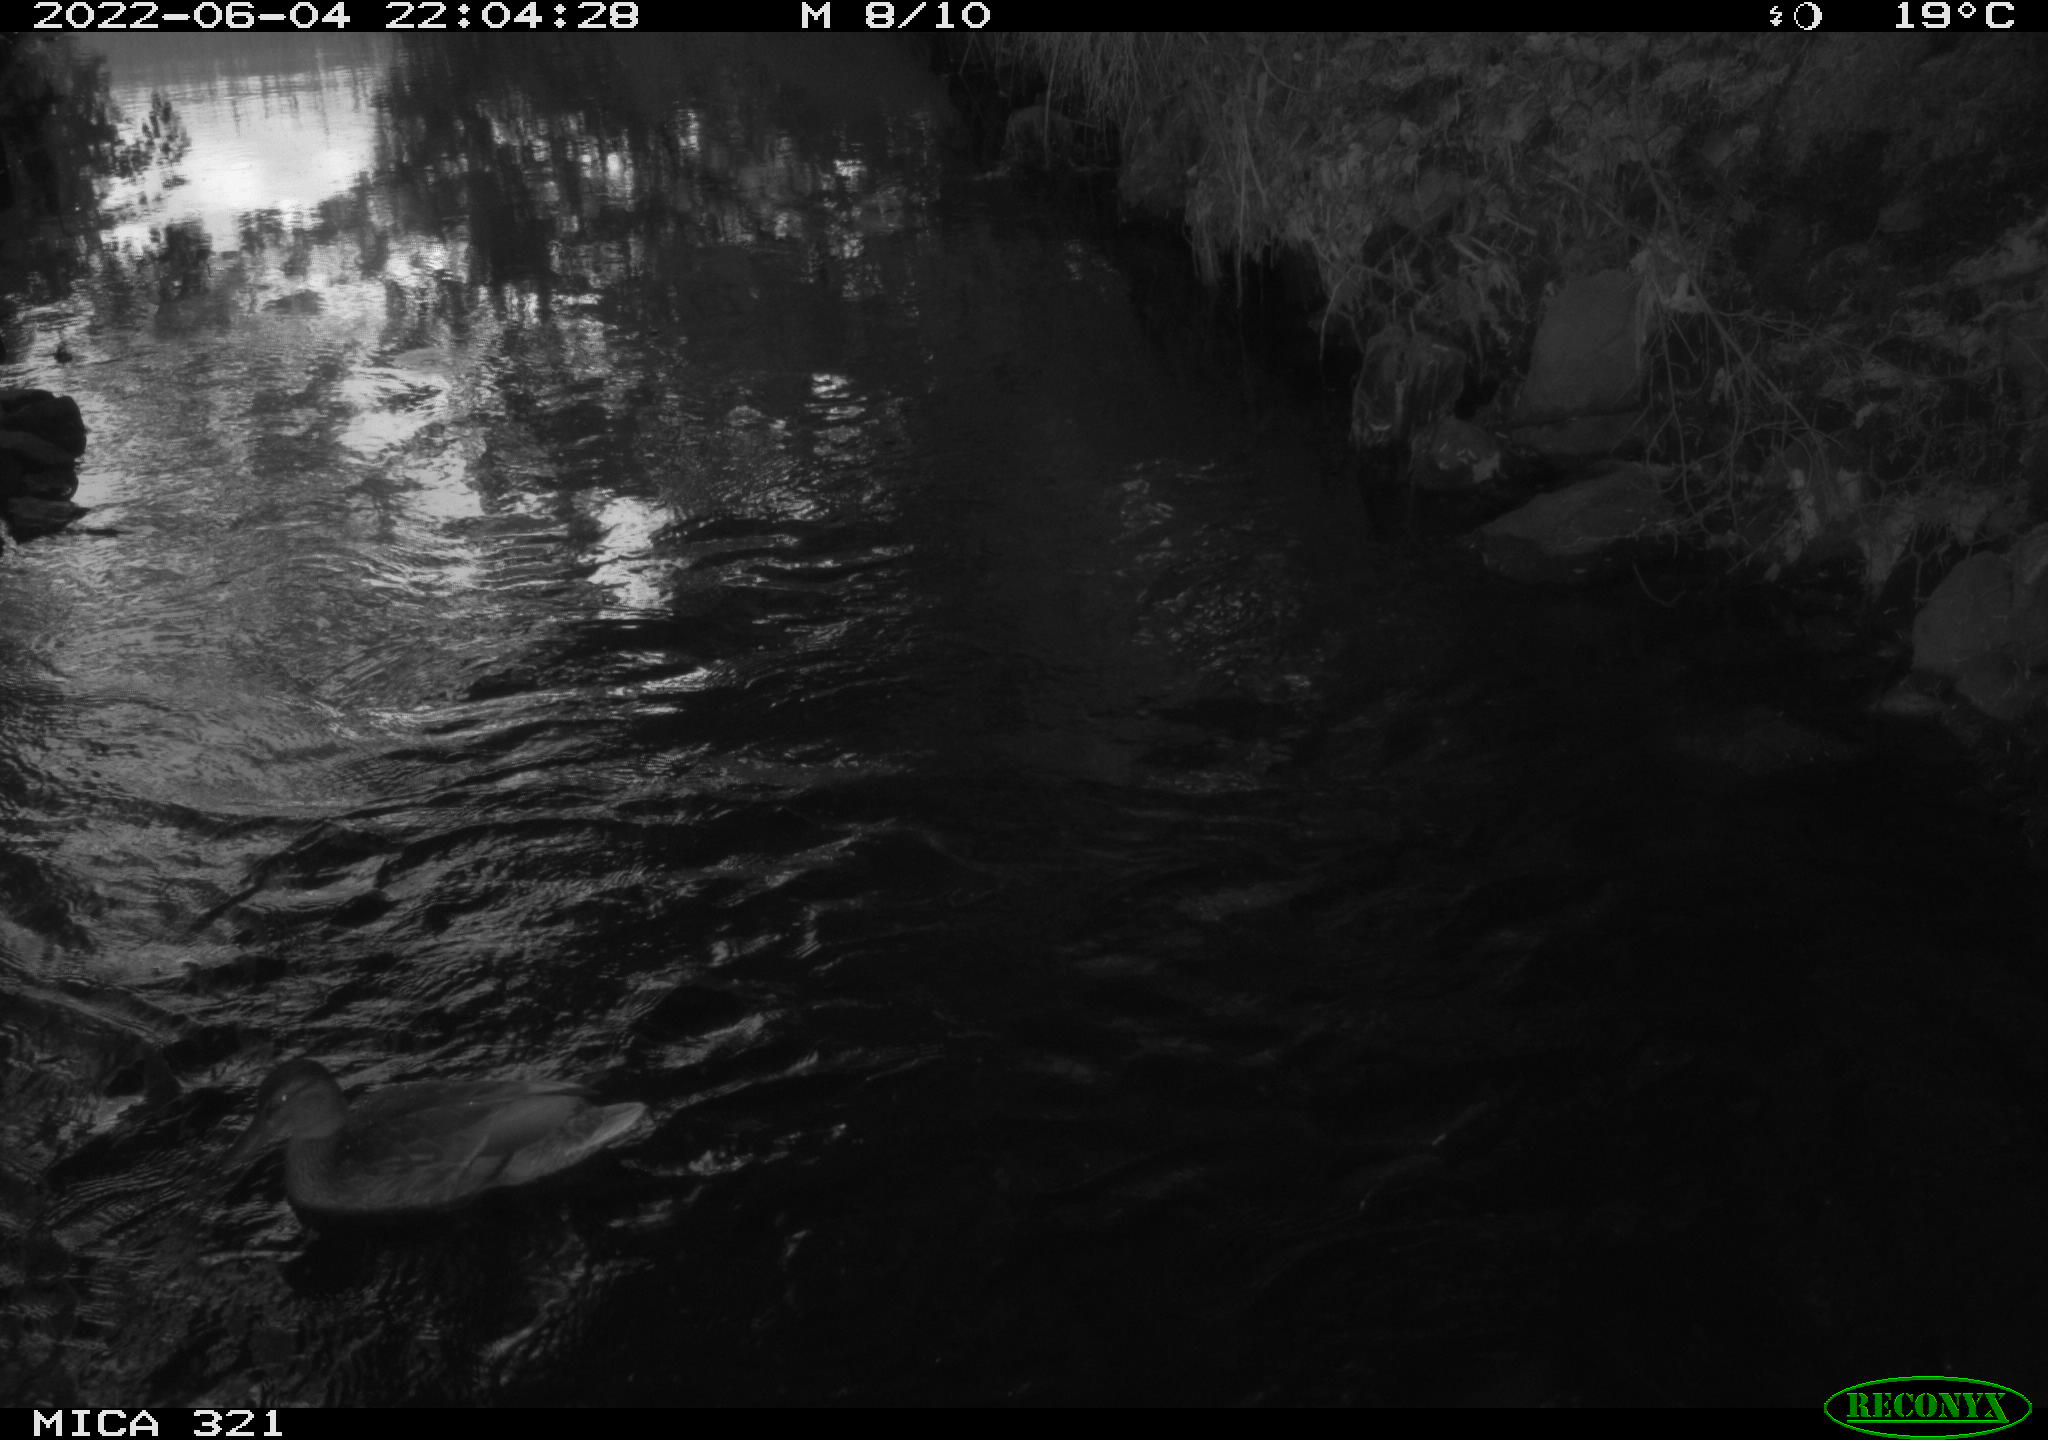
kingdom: Animalia
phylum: Chordata
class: Aves
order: Anseriformes
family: Anatidae
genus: Anas
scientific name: Anas platyrhynchos
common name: Mallard
